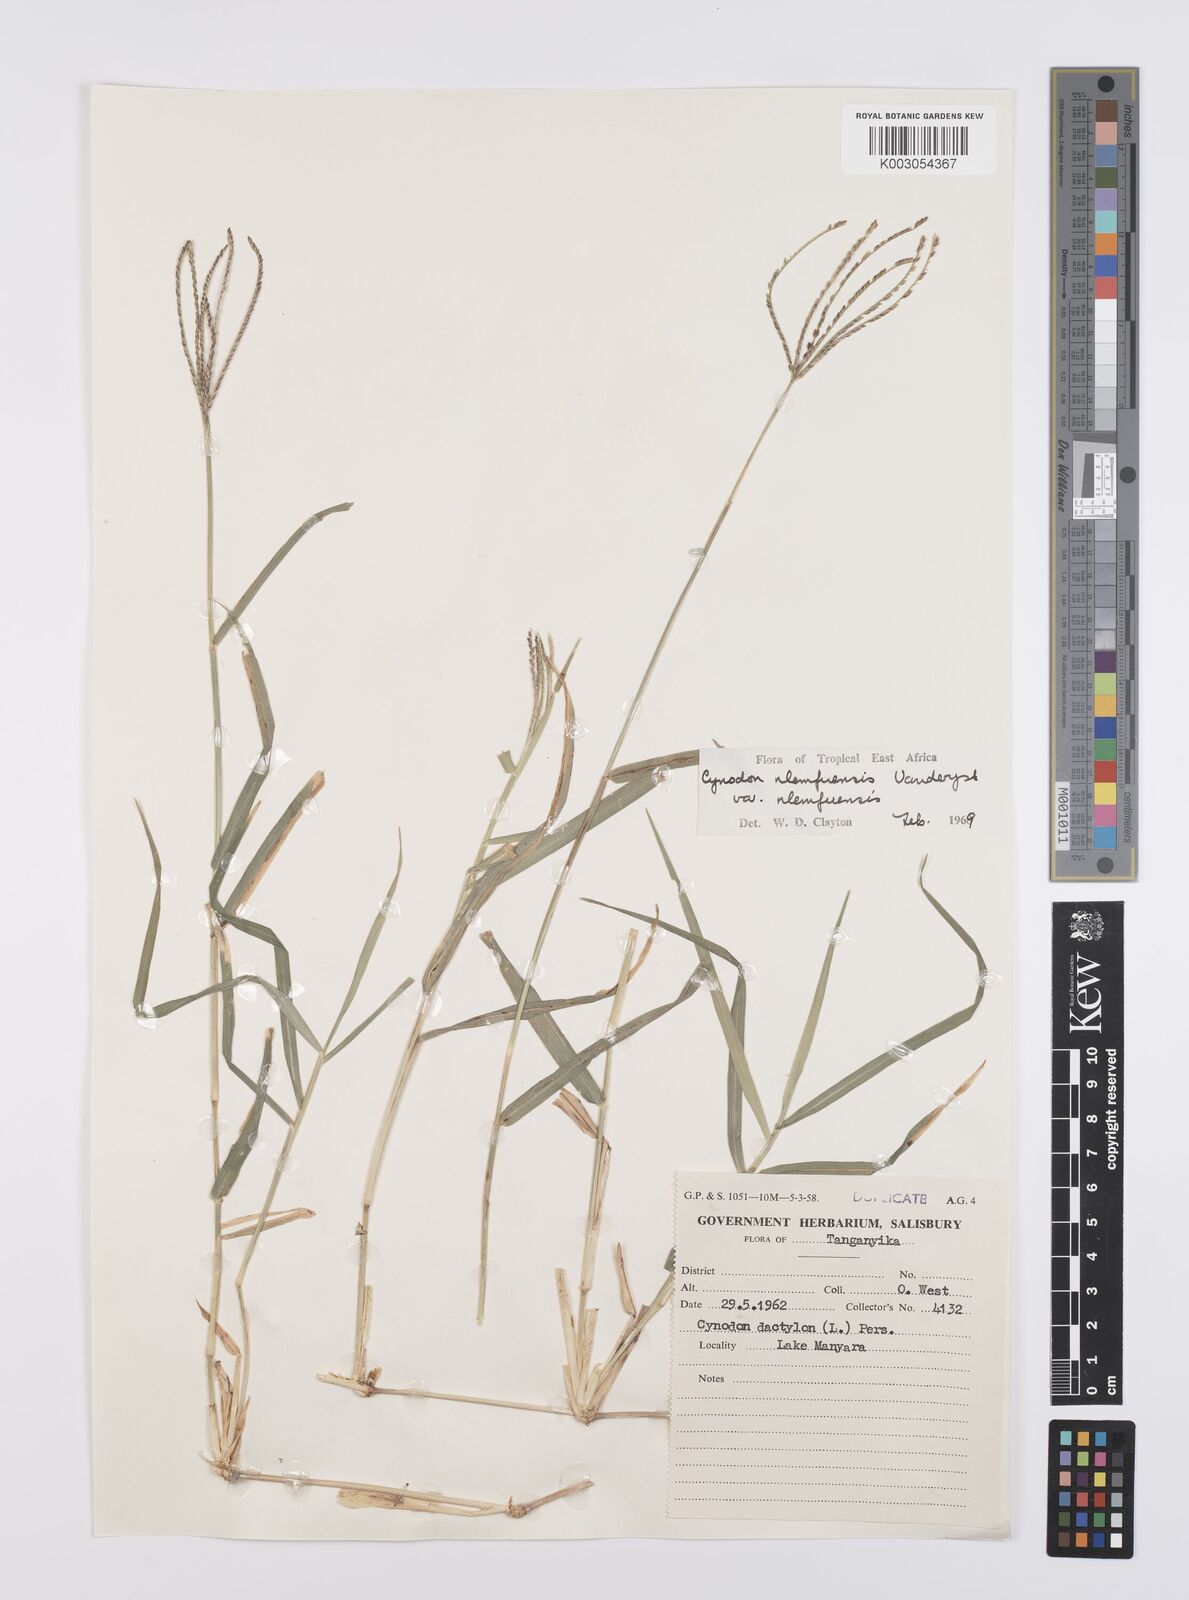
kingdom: Plantae
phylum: Tracheophyta
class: Liliopsida
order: Poales
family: Poaceae
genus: Cynodon
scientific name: Cynodon nlemfuensis
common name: African bermudagrass
